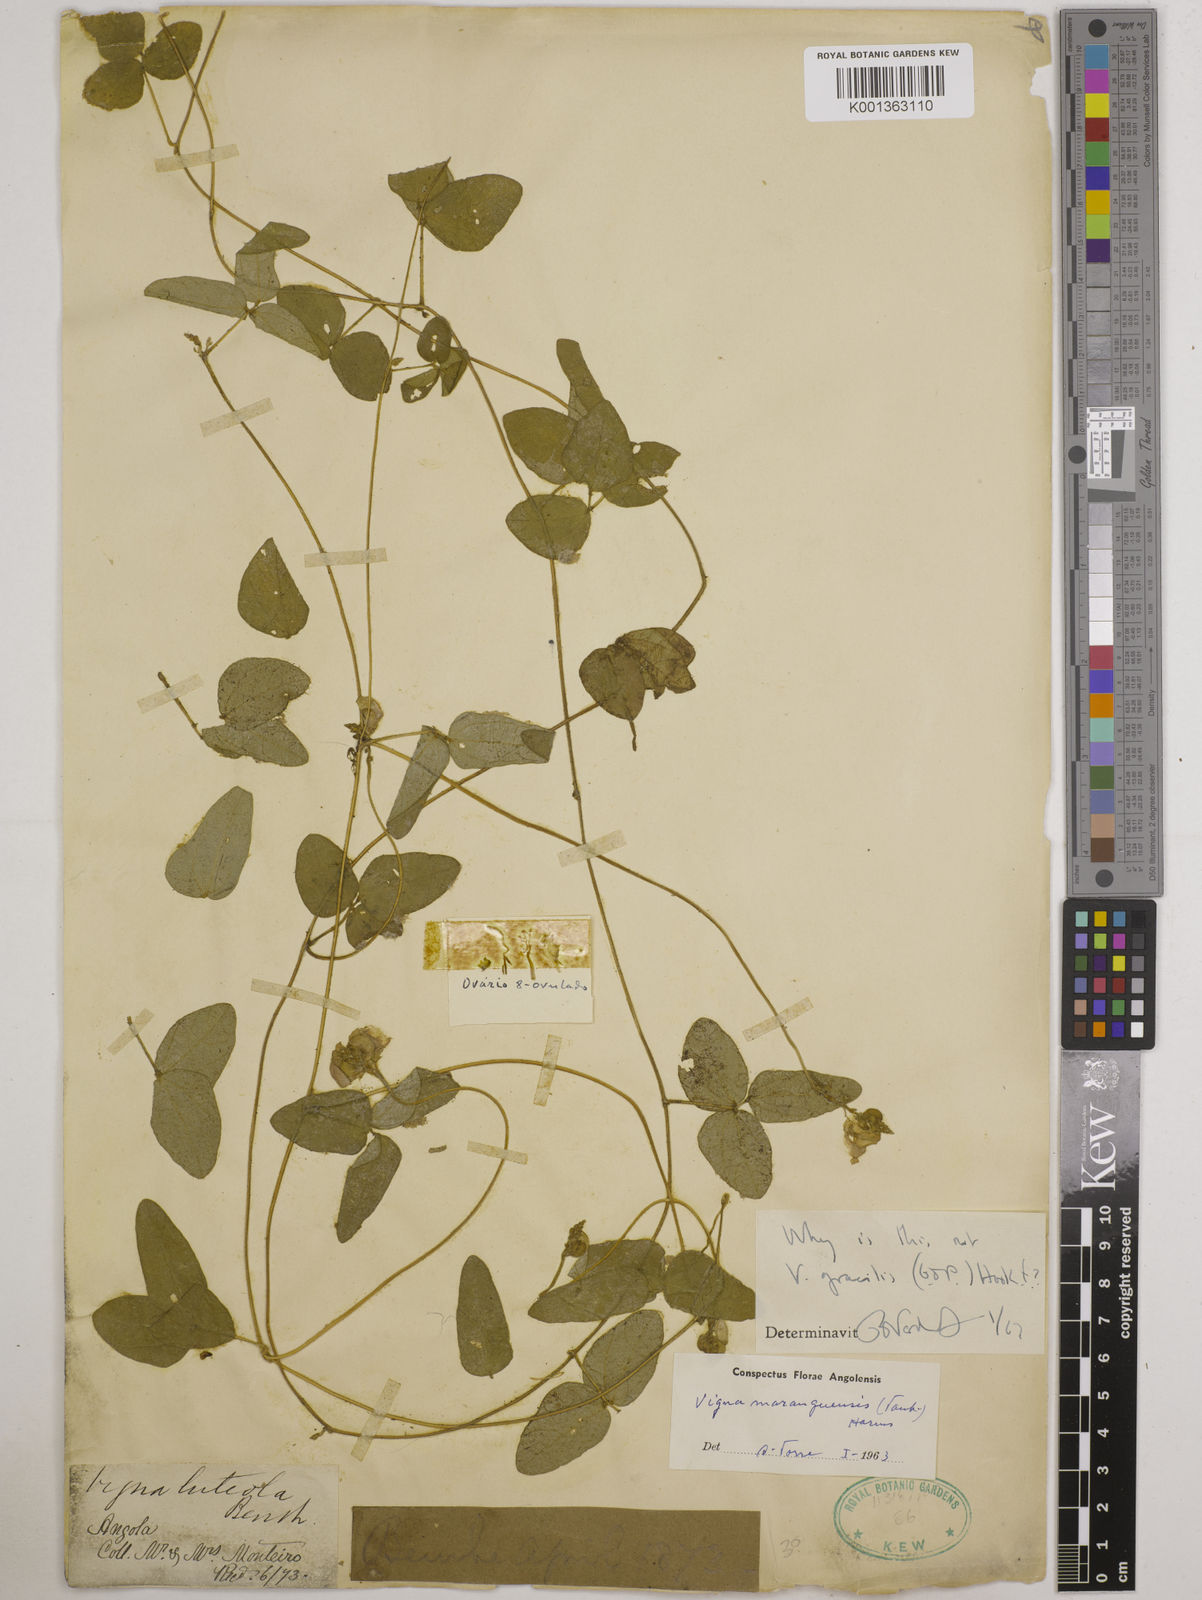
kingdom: Plantae
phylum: Tracheophyta
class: Magnoliopsida
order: Fabales
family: Fabaceae
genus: Vigna
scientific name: Vigna gracilis
